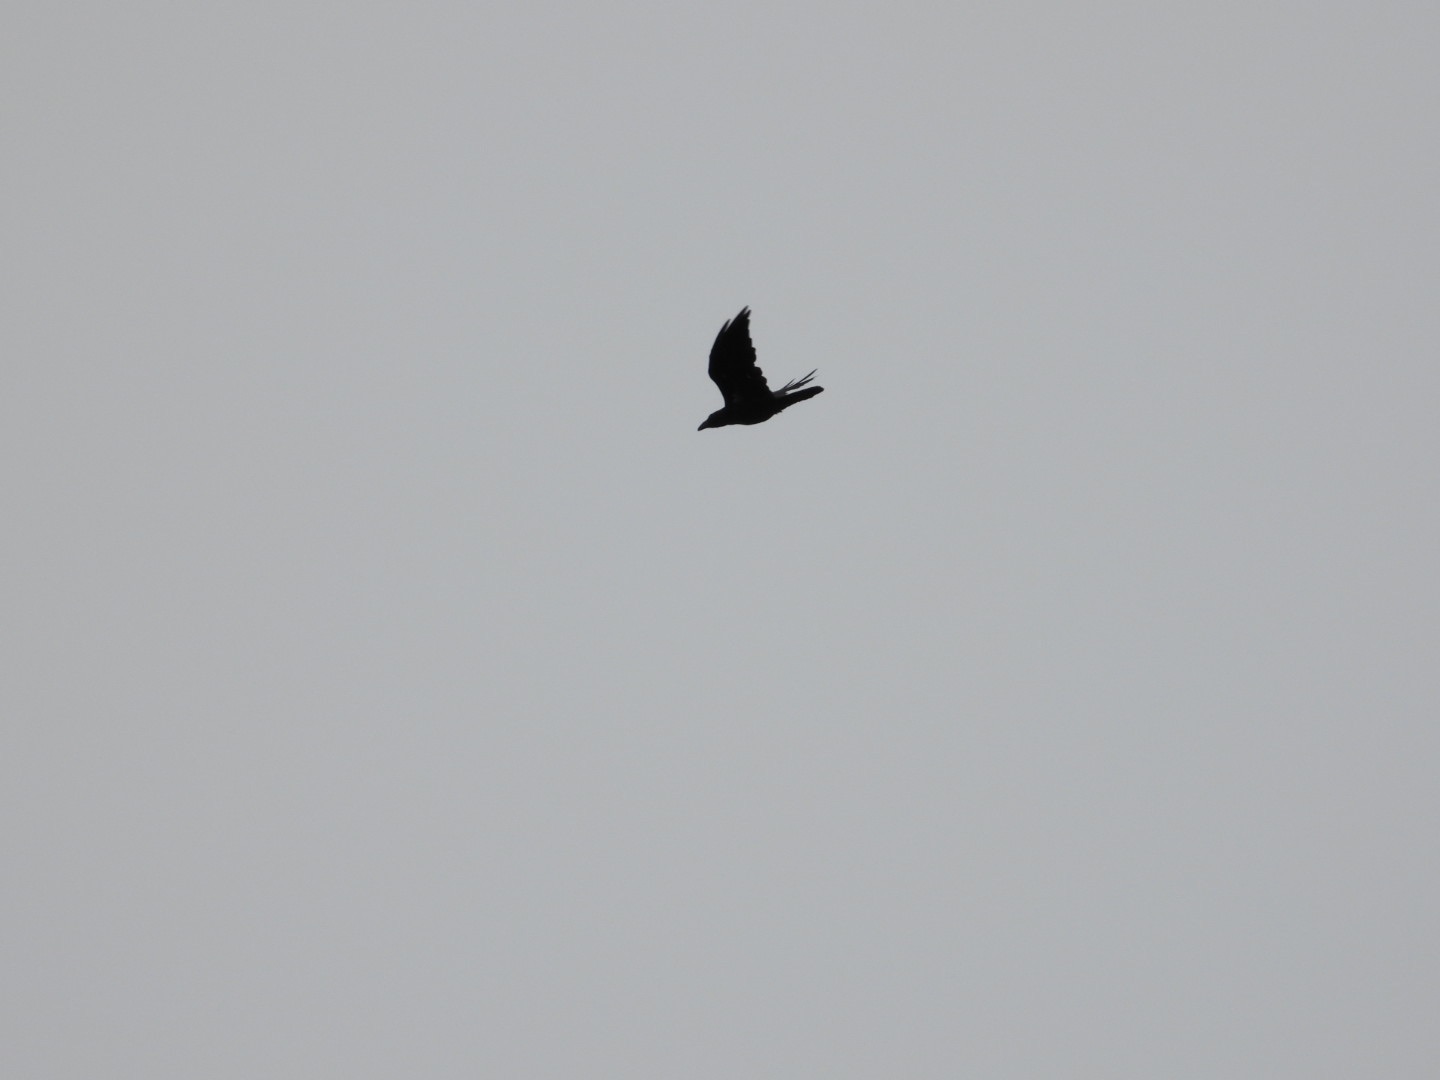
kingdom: Animalia
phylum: Chordata
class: Aves
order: Passeriformes
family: Corvidae
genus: Corvus
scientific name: Corvus corax
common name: Ravn
